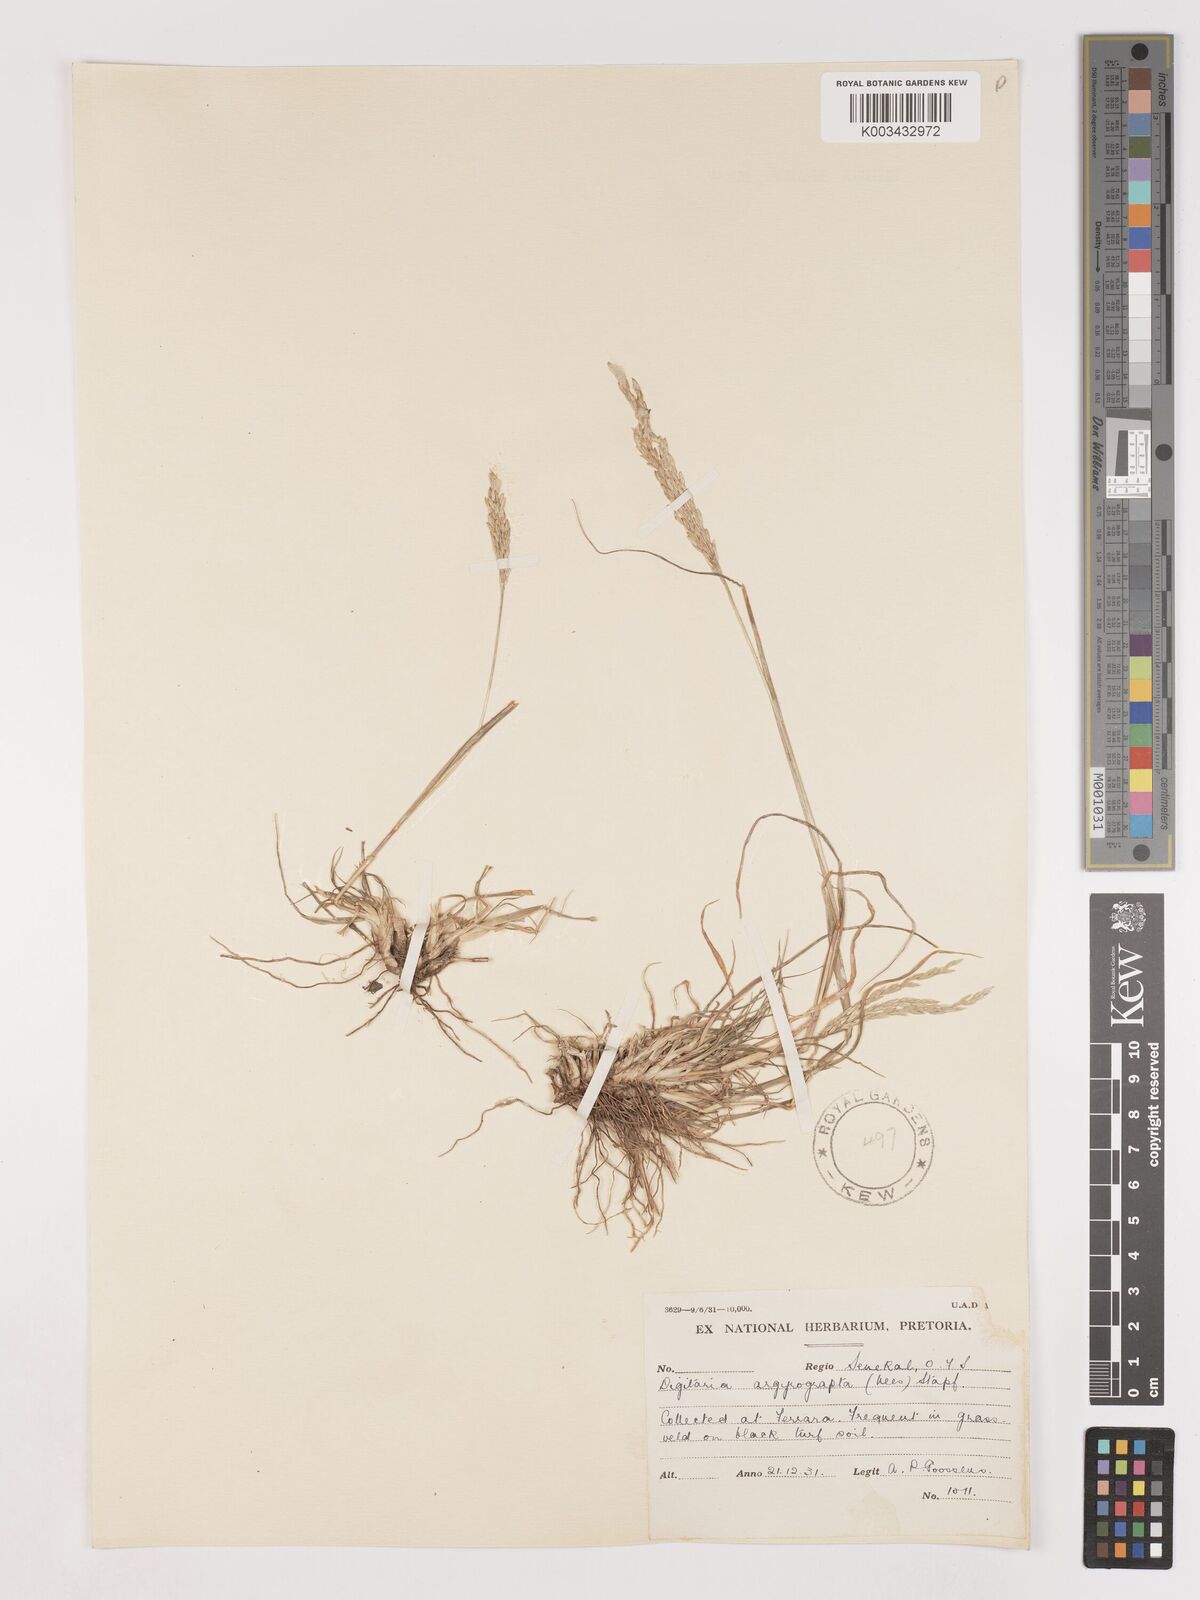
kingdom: Plantae
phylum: Tracheophyta
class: Liliopsida
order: Poales
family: Poaceae
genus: Digitaria
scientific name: Digitaria argyrograpta
